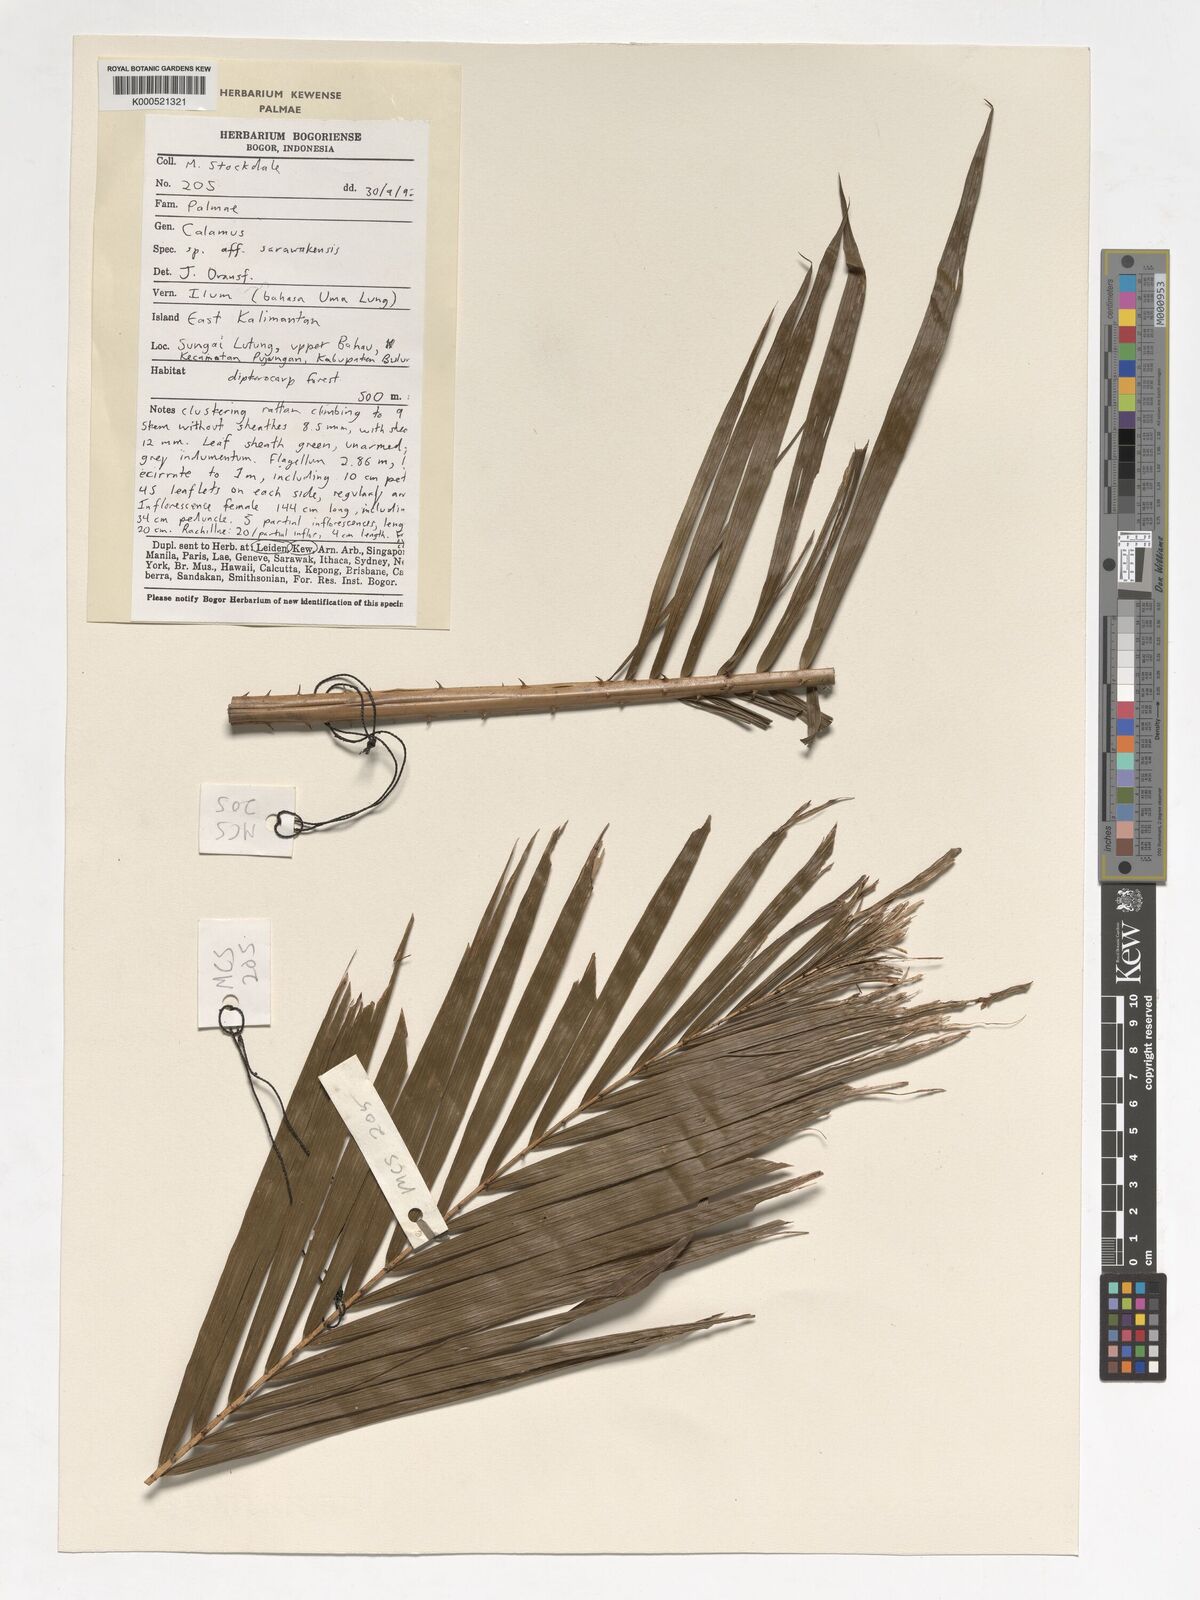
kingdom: Plantae
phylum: Tracheophyta
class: Liliopsida
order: Arecales
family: Arecaceae
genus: Calamus
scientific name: Calamus sarawakensis
